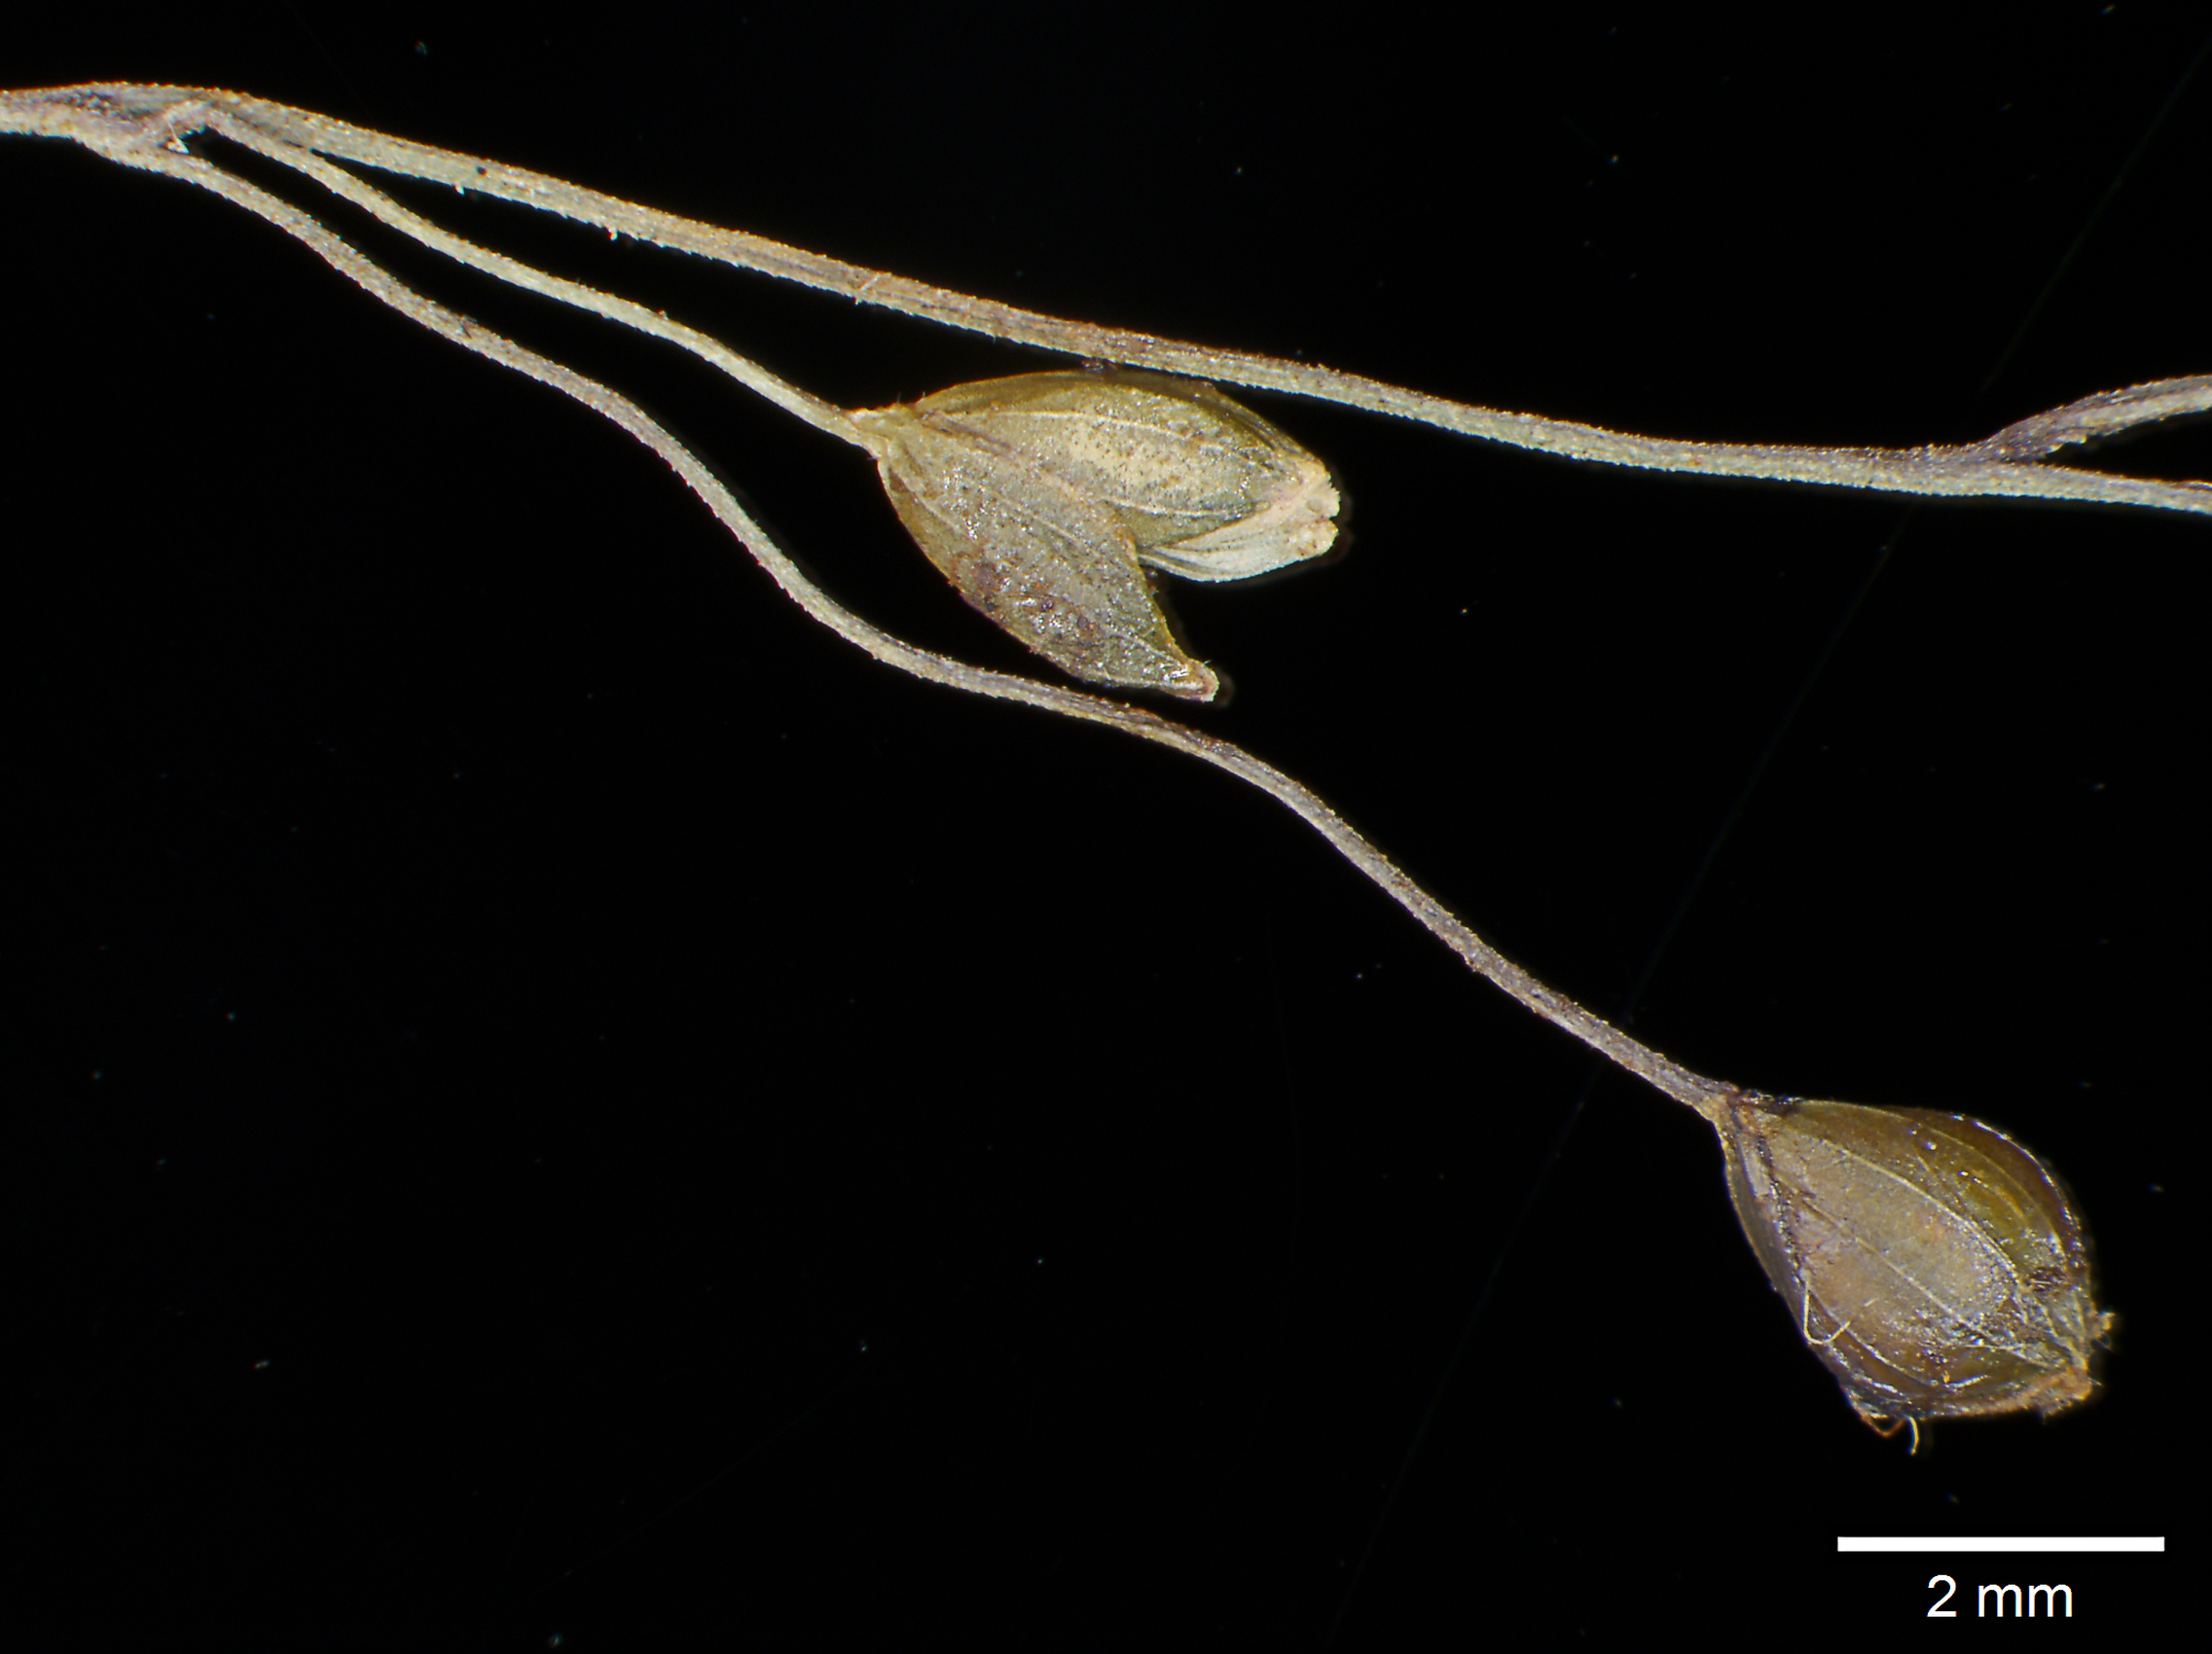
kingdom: Plantae
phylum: Tracheophyta
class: Liliopsida
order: Poales
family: Poaceae
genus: Homolepis
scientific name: Homolepis glutinosa
